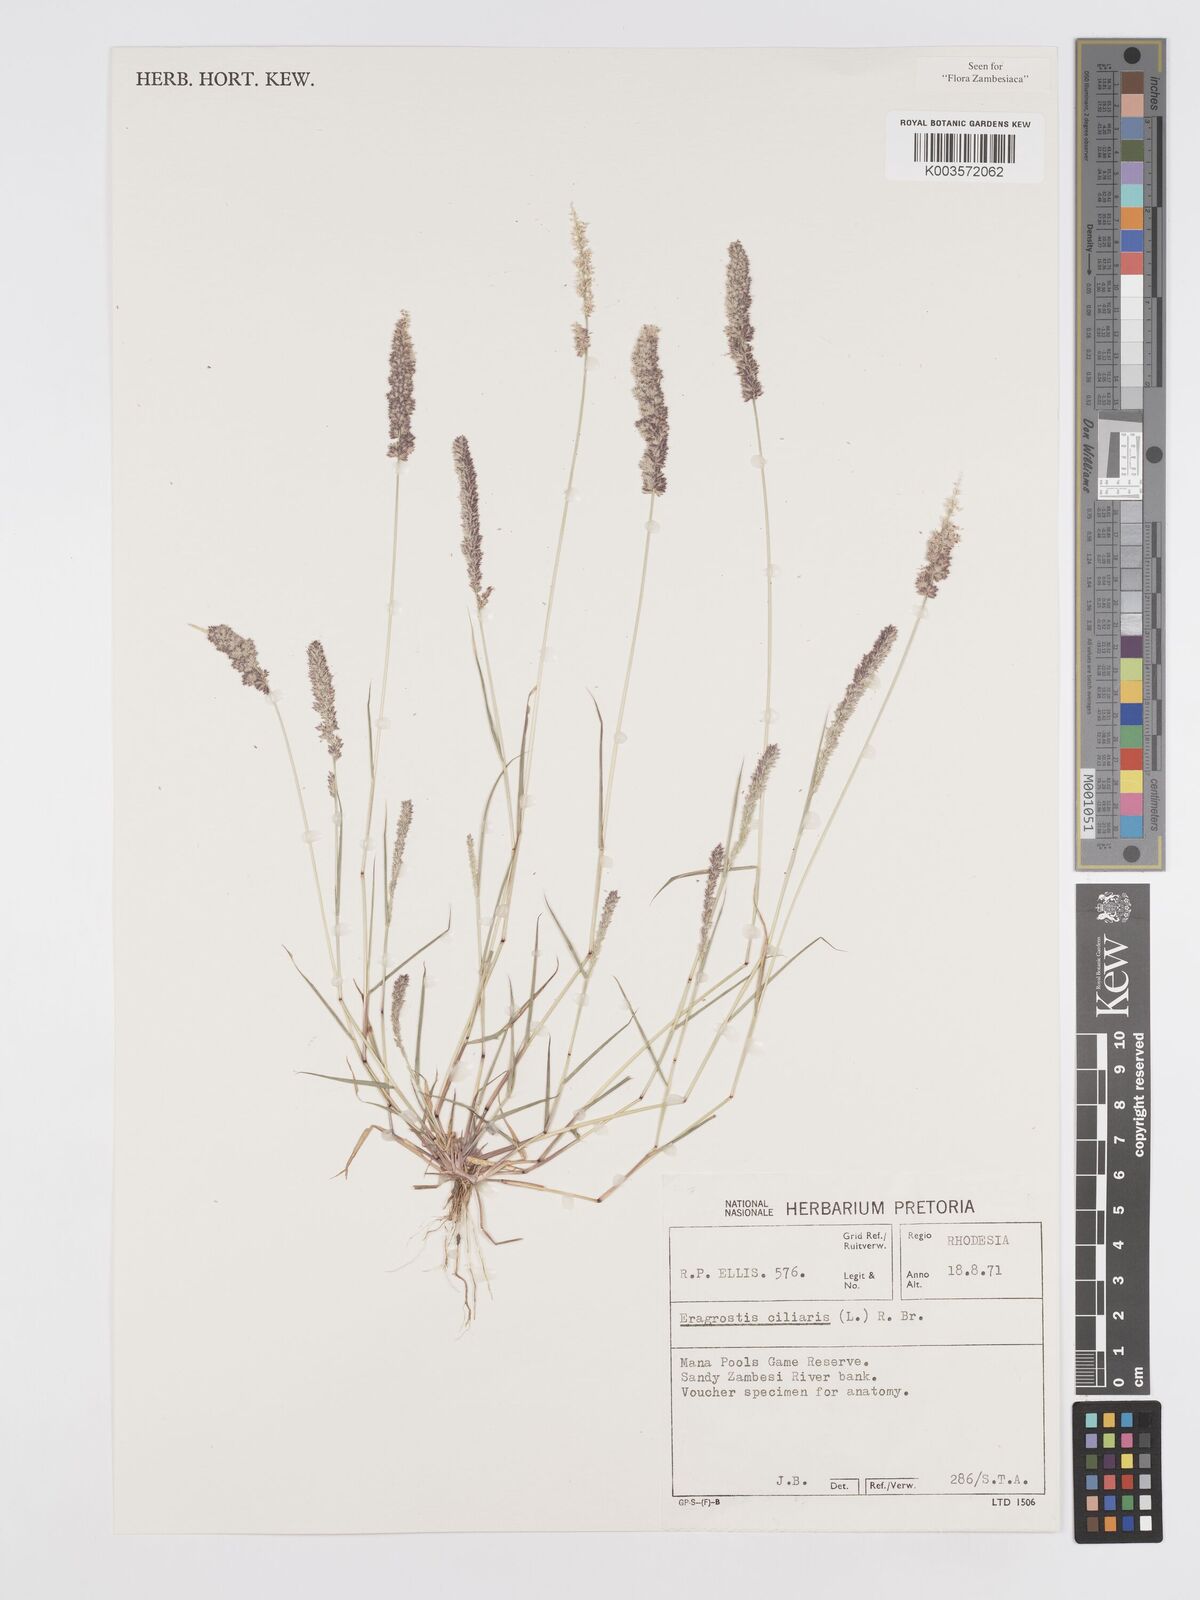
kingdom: Plantae
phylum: Tracheophyta
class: Liliopsida
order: Poales
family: Poaceae
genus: Eragrostis
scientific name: Eragrostis ciliaris
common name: Gophertail lovegrass
